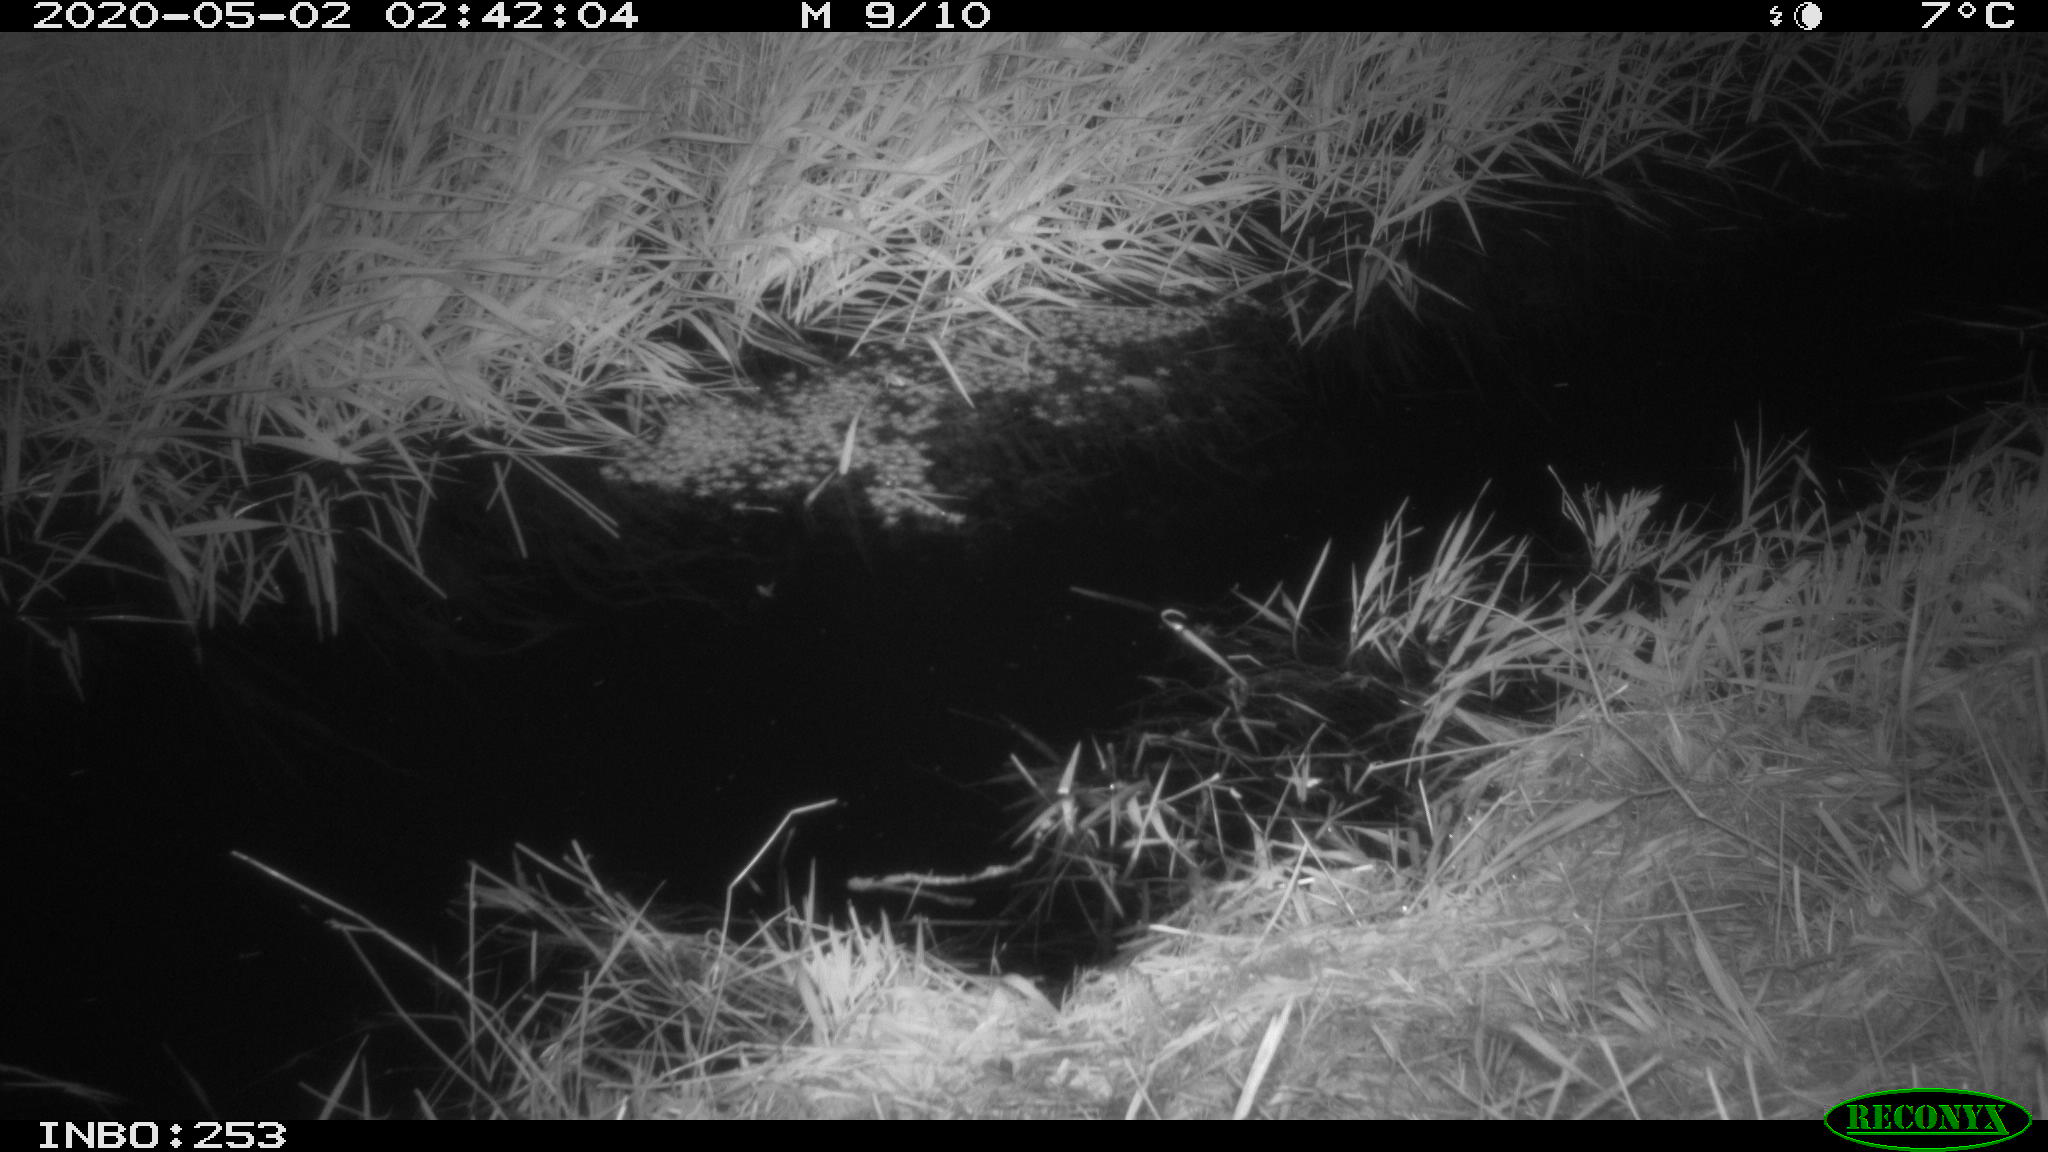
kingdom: Animalia
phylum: Chordata
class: Aves
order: Anseriformes
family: Anatidae
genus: Anas
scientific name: Anas platyrhynchos
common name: Mallard
